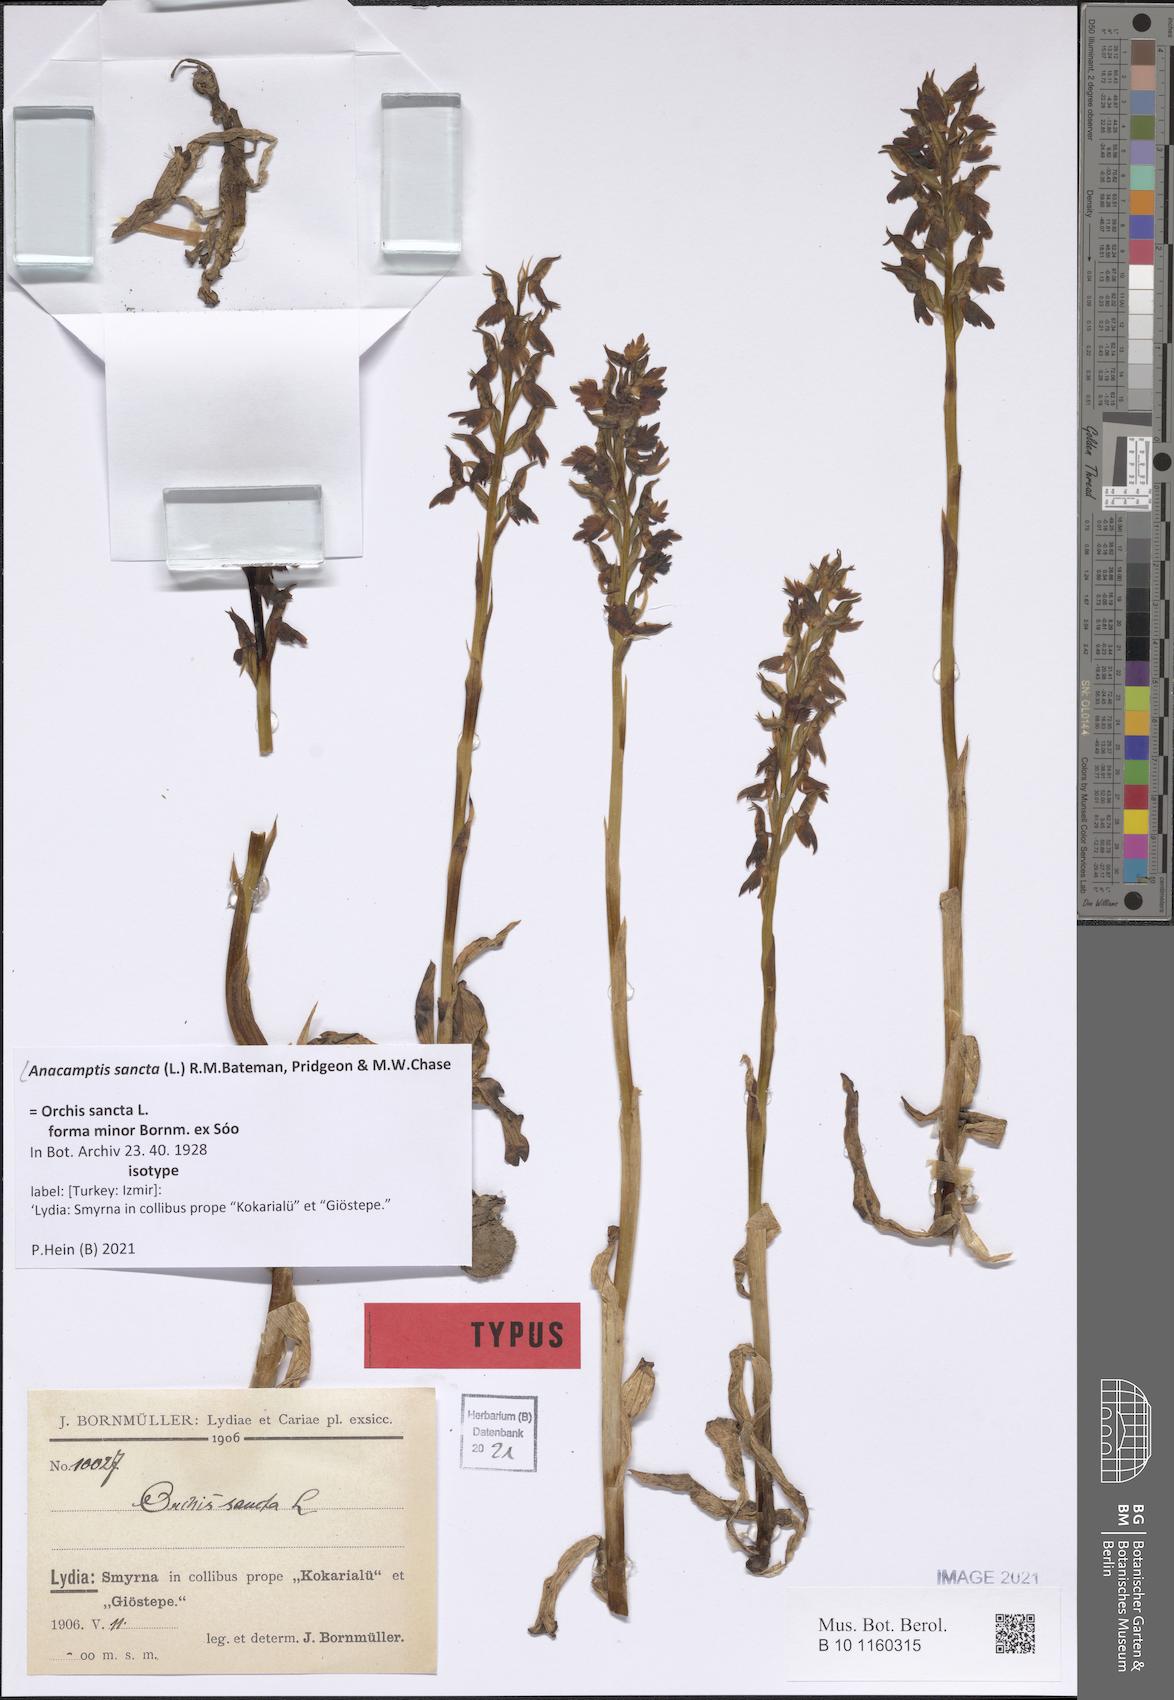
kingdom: Plantae
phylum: Tracheophyta
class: Liliopsida
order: Asparagales
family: Orchidaceae
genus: Anacamptis
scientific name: Anacamptis sancta
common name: Holy orchid
